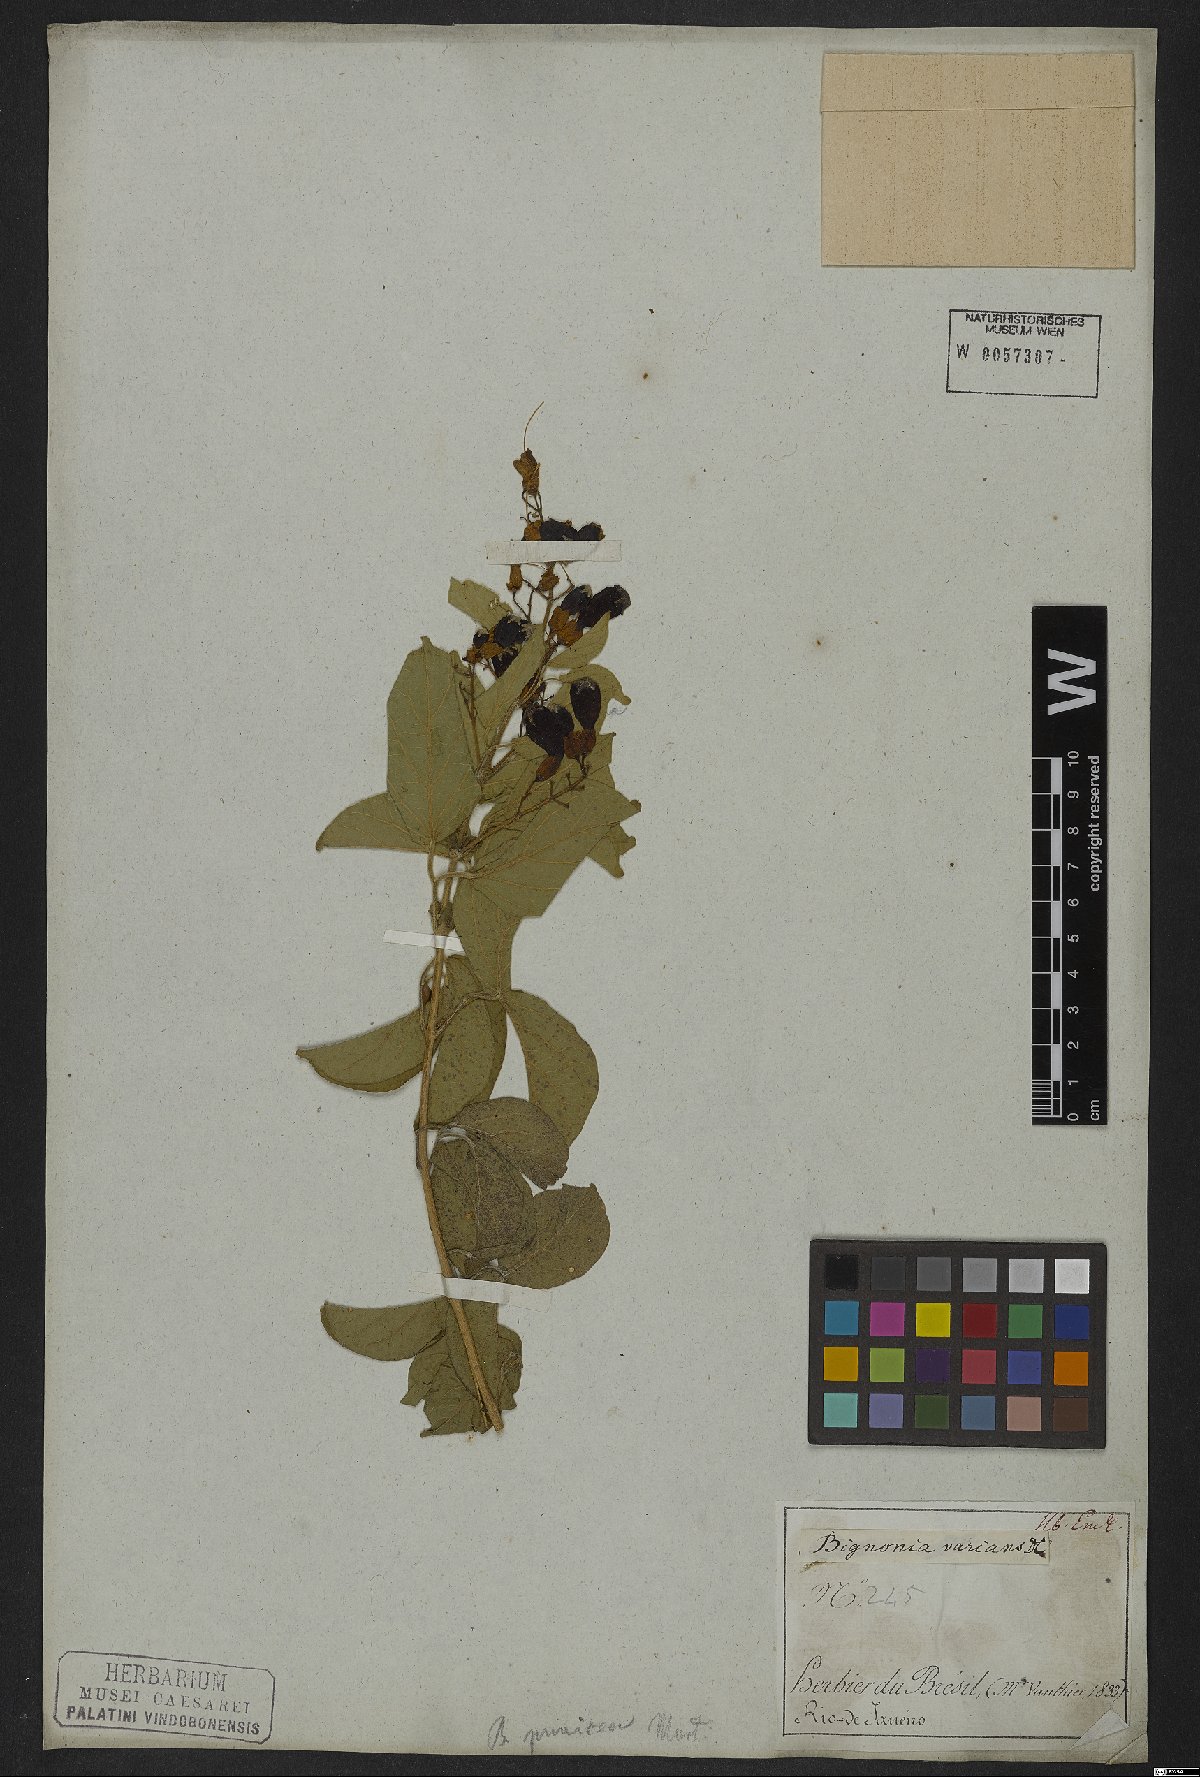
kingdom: Plantae
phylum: Tracheophyta
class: Magnoliopsida
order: Lamiales
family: Bignoniaceae
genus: Fridericia
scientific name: Fridericia leucopogon
